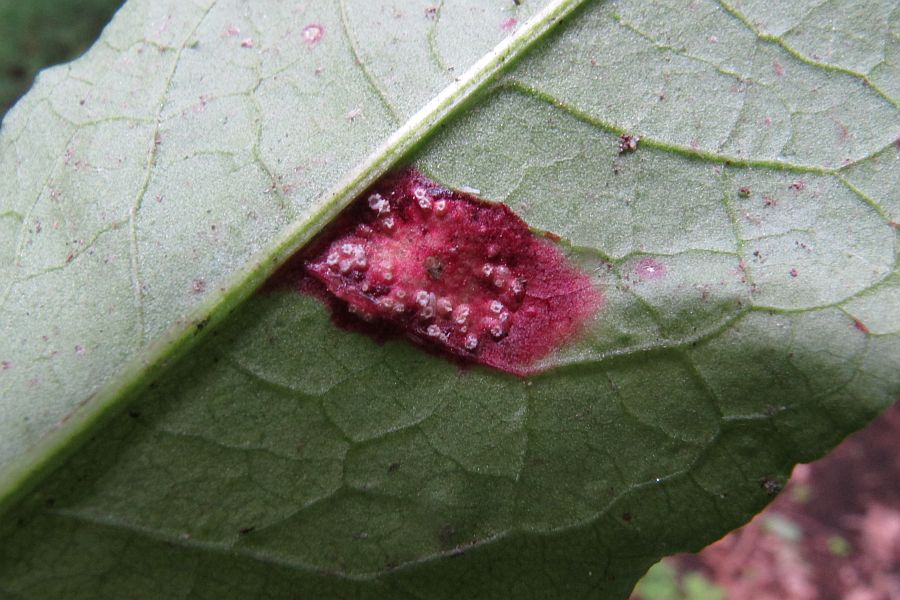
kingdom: Fungi
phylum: Basidiomycota
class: Pucciniomycetes
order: Pucciniales
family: Pucciniaceae
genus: Puccinia
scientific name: Puccinia phragmitis
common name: tagrør-tvecellerust
